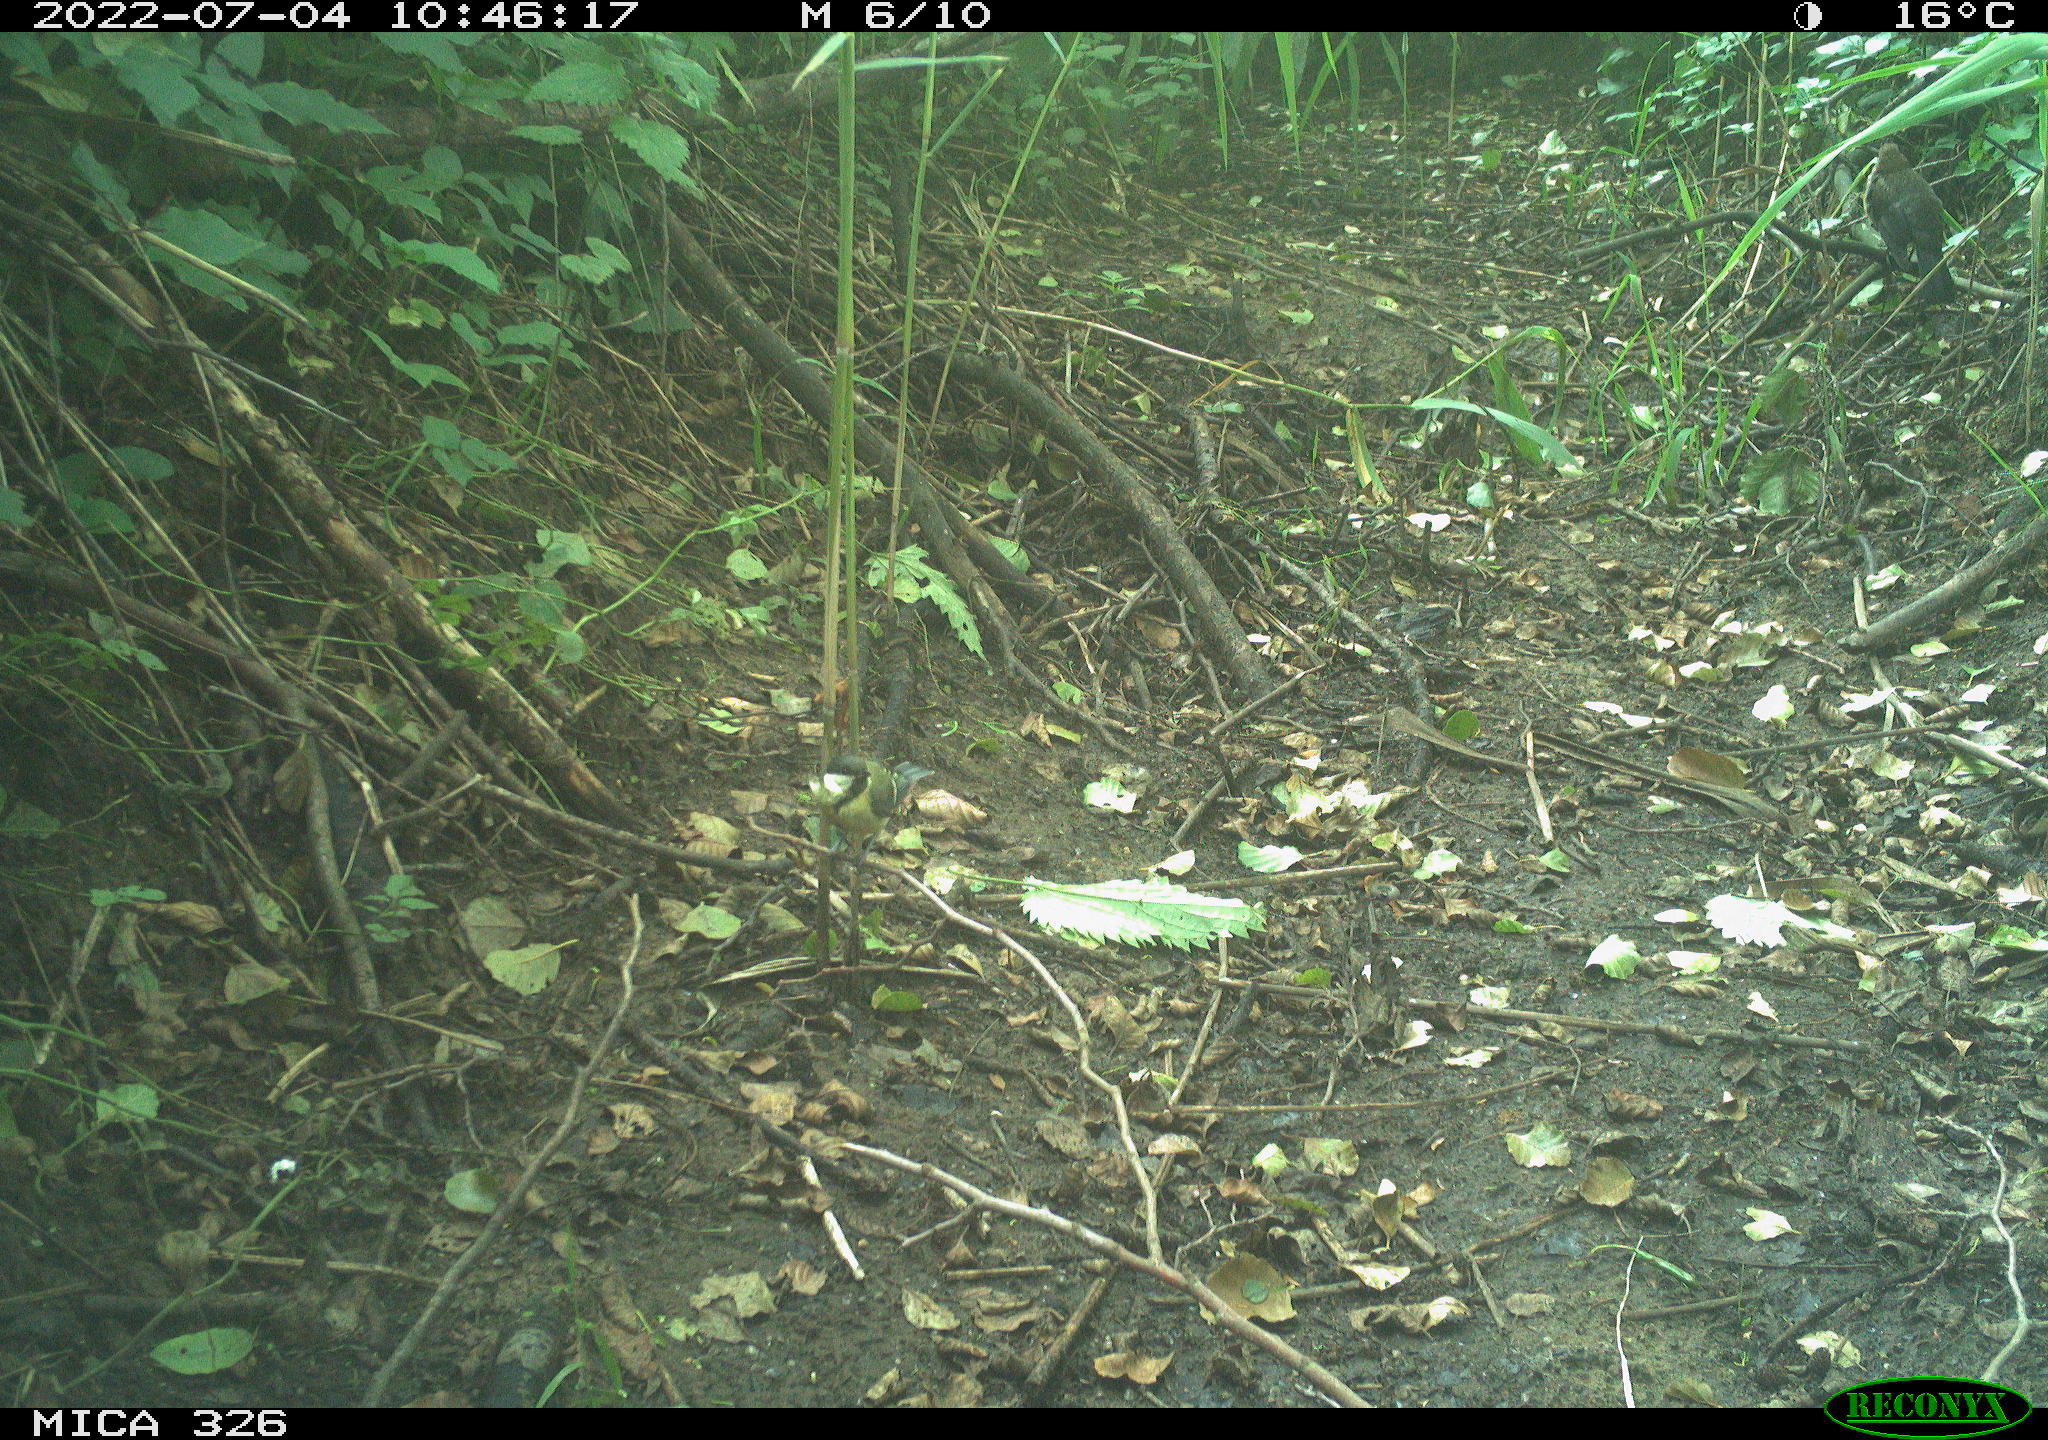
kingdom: Animalia
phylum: Chordata
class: Aves
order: Passeriformes
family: Paridae
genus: Parus
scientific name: Parus major
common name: Great tit
